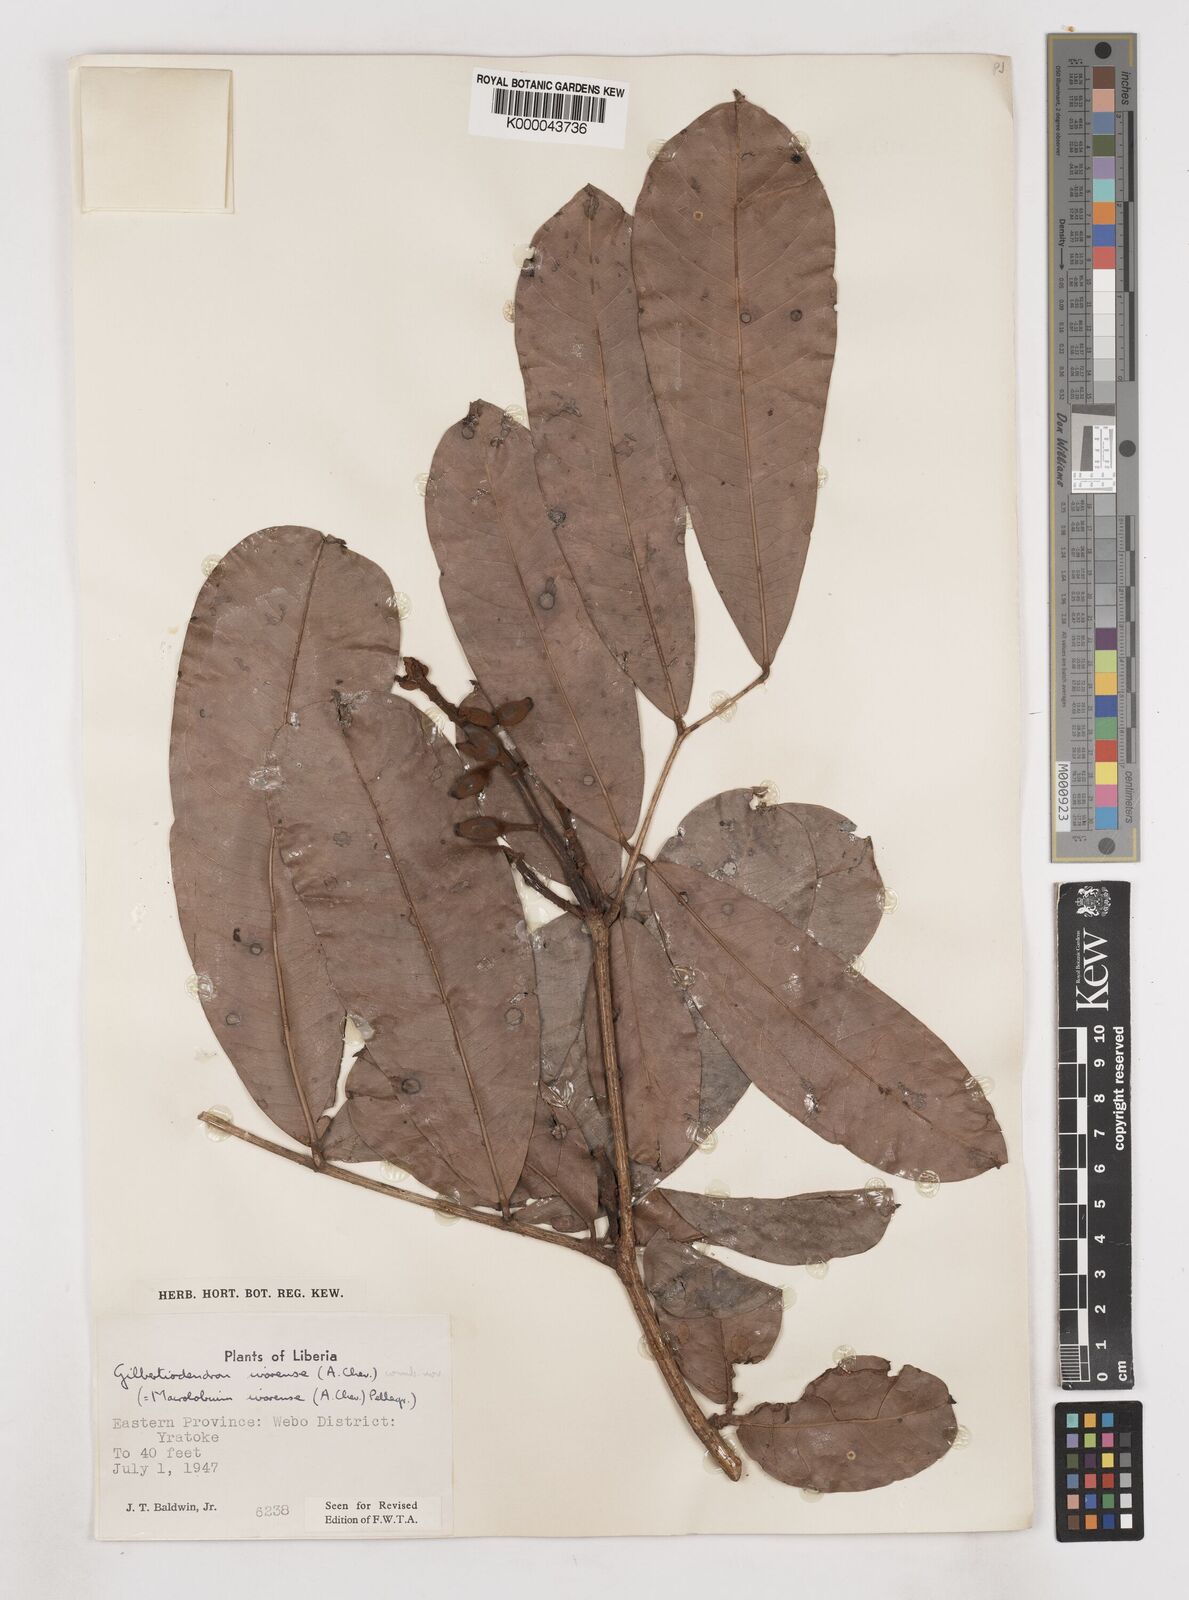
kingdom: Plantae
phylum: Tracheophyta
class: Magnoliopsida
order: Fabales
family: Fabaceae
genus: Gilbertiodendron
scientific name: Gilbertiodendron
